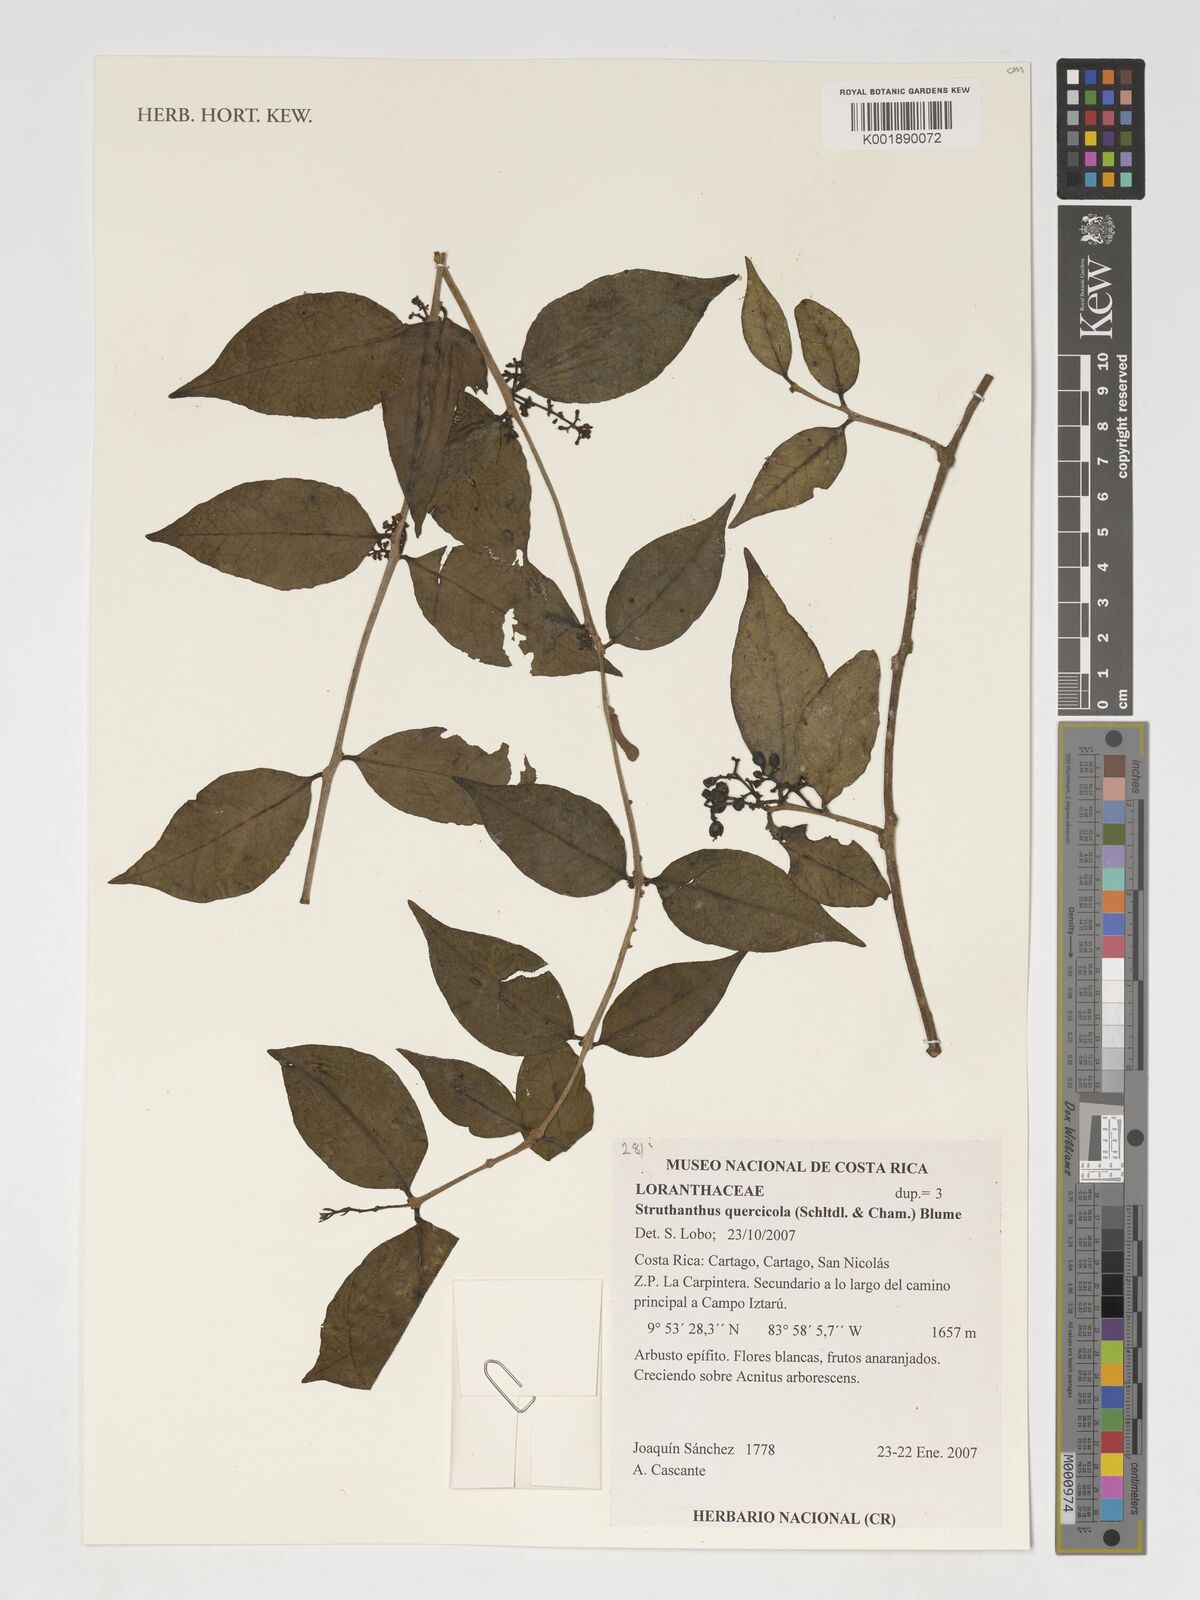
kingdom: Plantae
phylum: Tracheophyta
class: Magnoliopsida
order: Santalales
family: Loranthaceae
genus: Struthanthus
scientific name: Struthanthus quercicola
